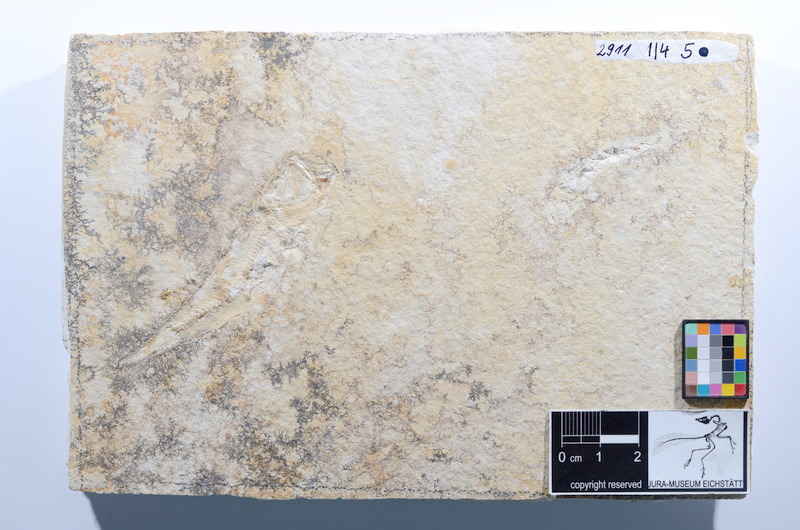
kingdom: Animalia
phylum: Chordata
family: Ascalaboidae
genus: Ascalabos
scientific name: Ascalabos voithii
